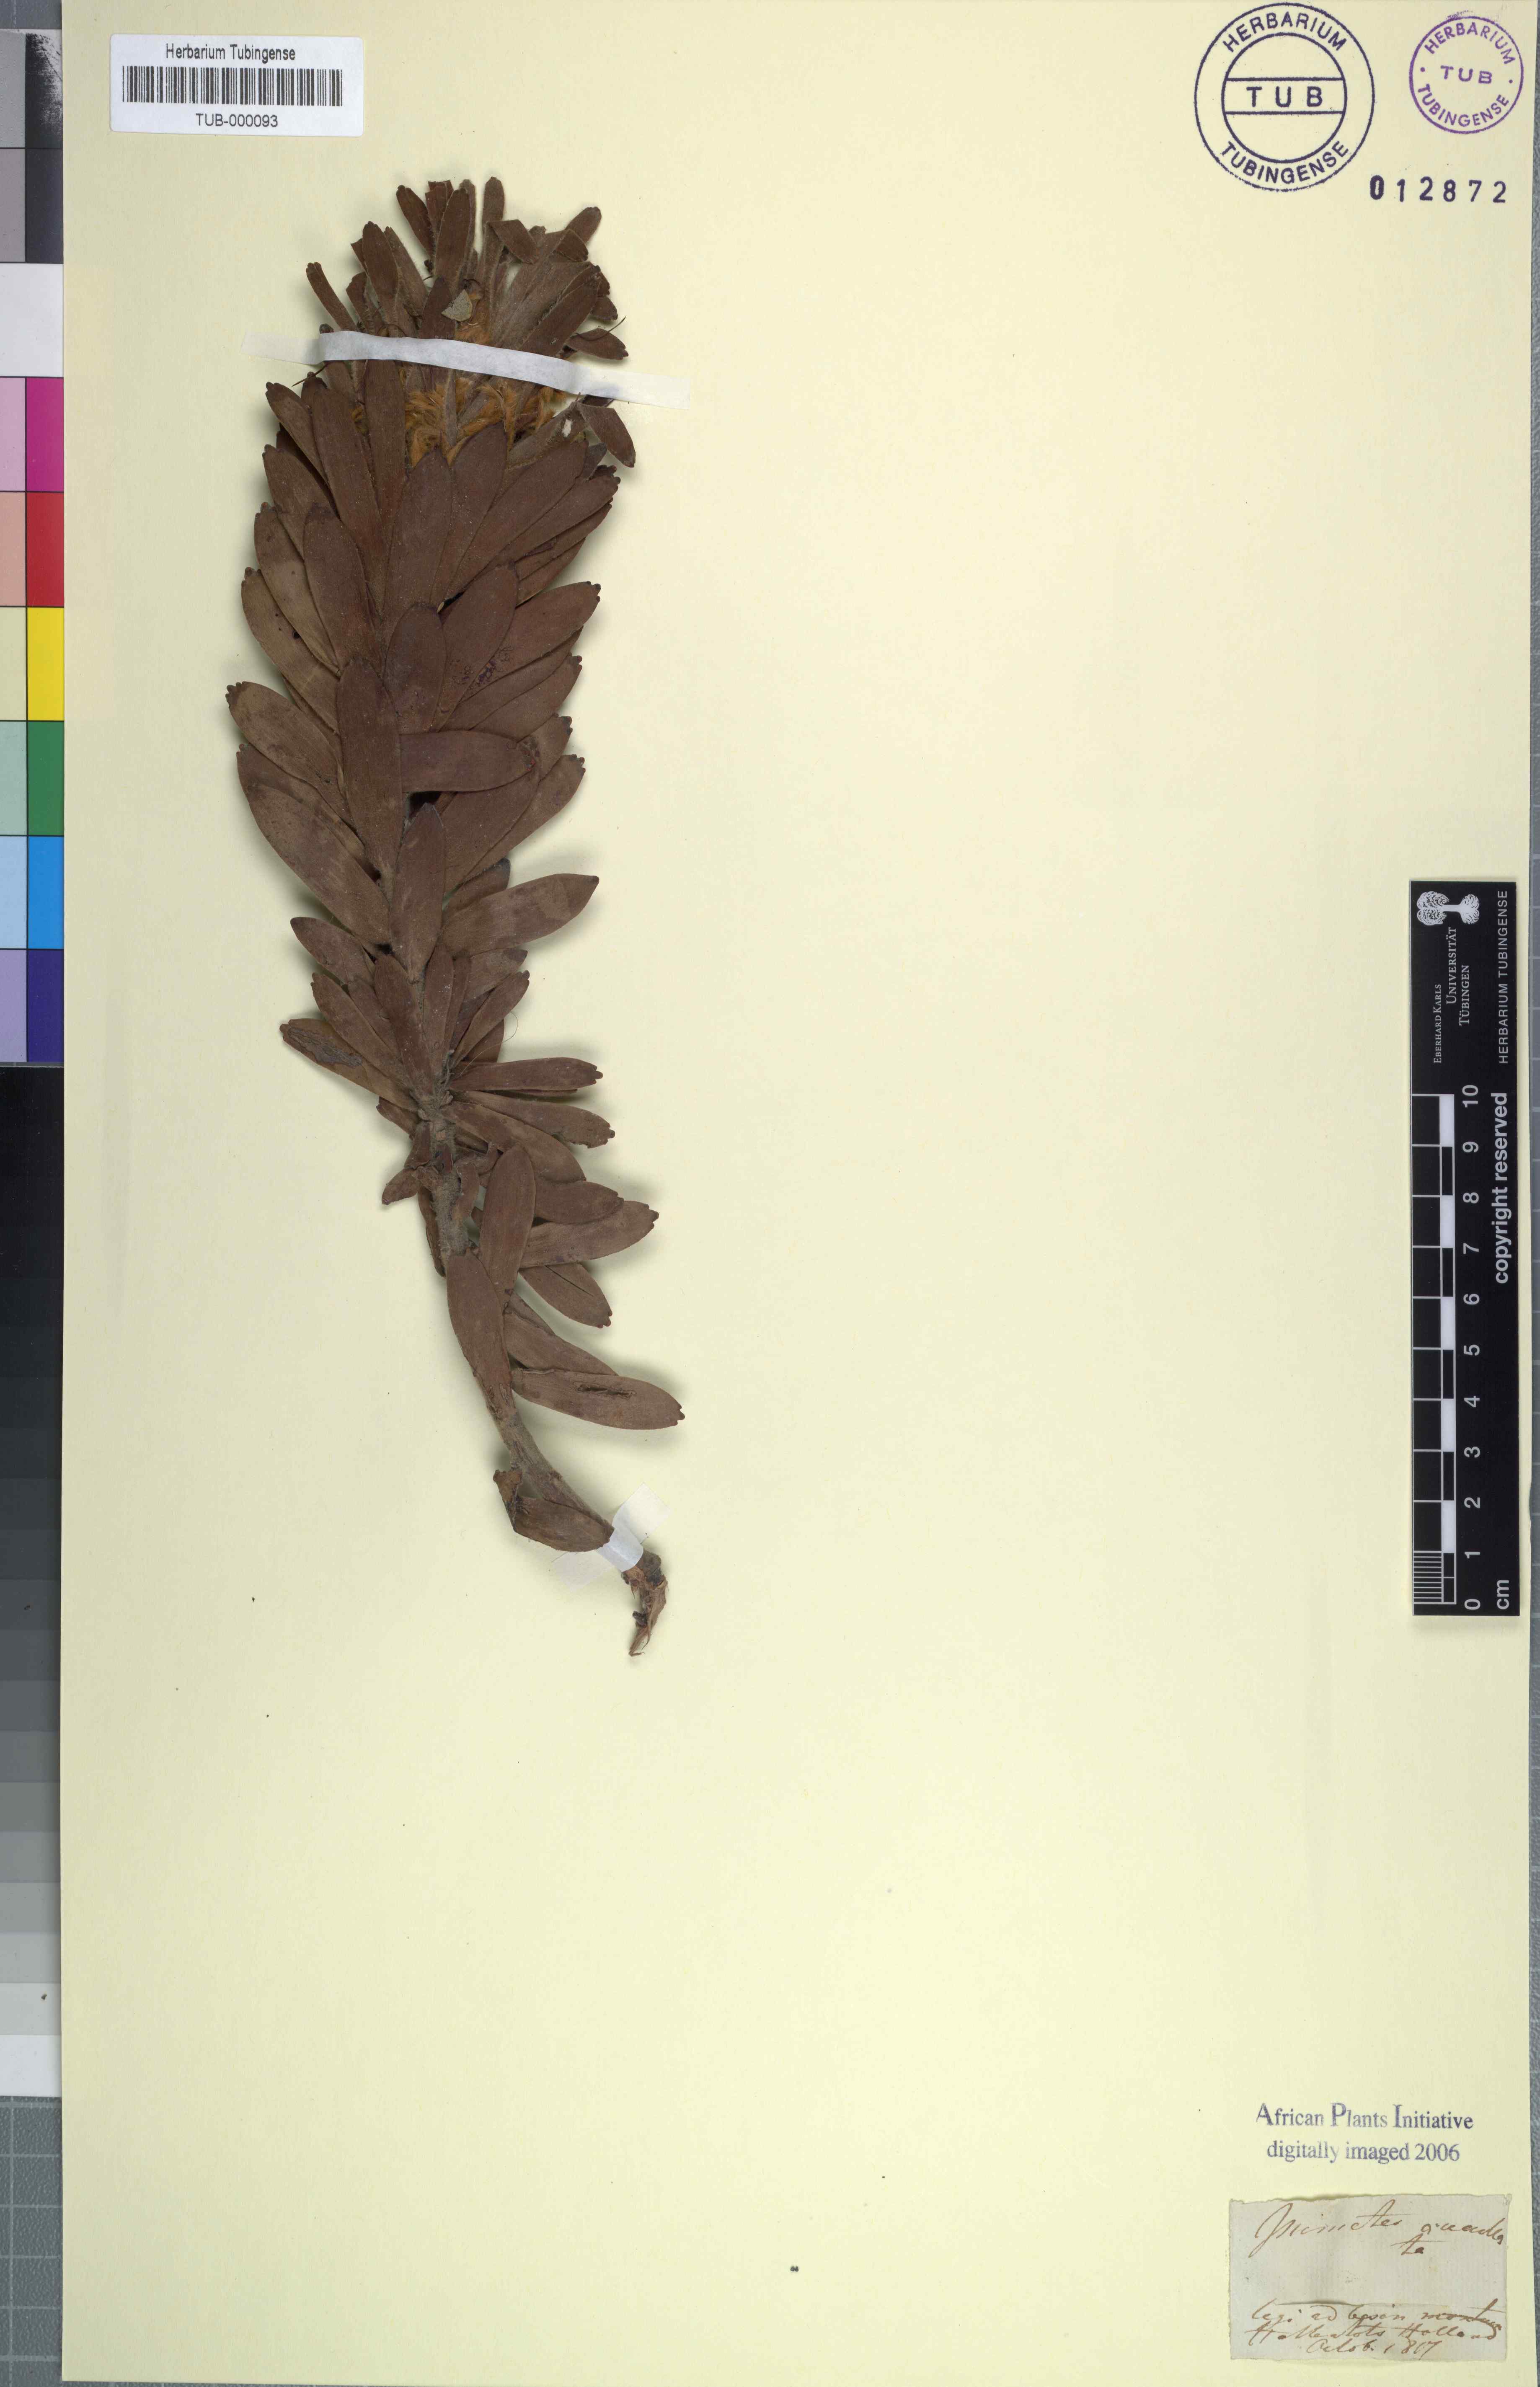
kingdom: Plantae
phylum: Tracheophyta
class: Magnoliopsida
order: Proteales
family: Proteaceae
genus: Mimetes
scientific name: Mimetes cucullatus
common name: Common pagoda
